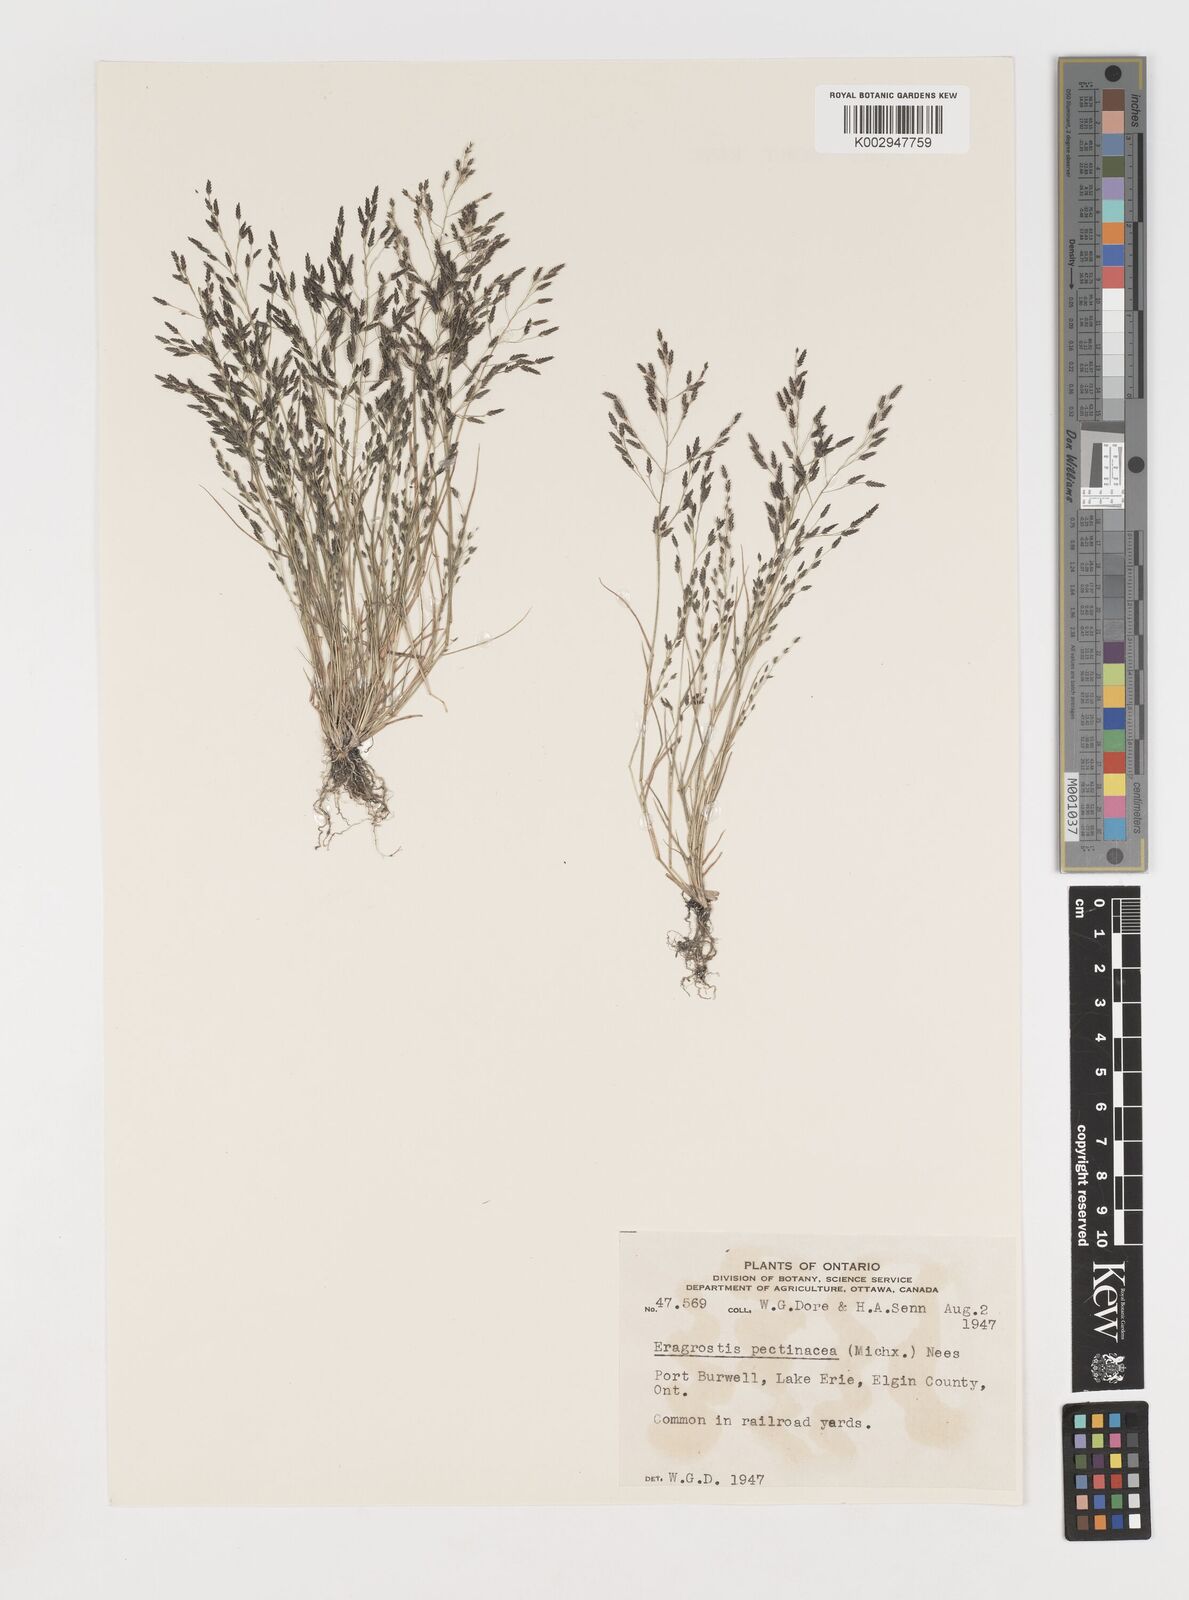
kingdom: Plantae
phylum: Tracheophyta
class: Liliopsida
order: Poales
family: Poaceae
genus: Eragrostis
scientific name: Eragrostis pectinacea
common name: Tufted lovegrass
